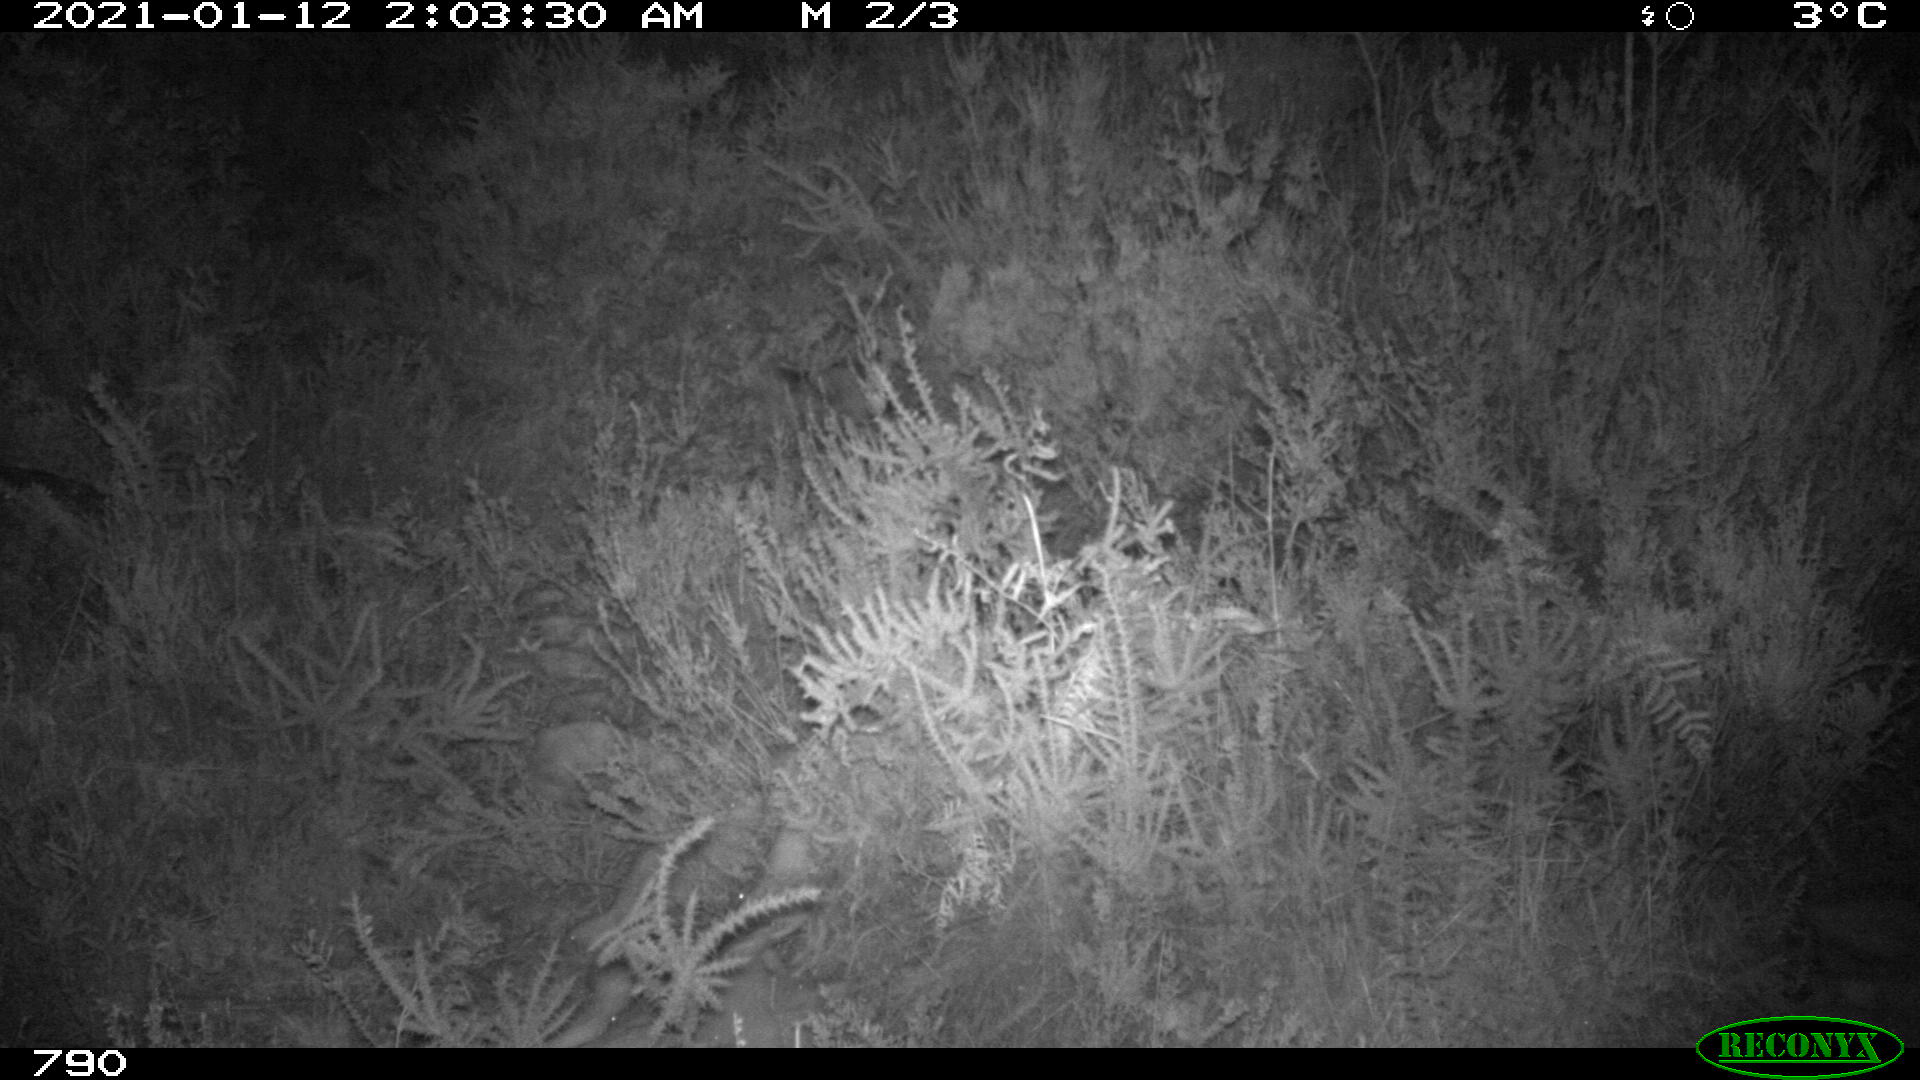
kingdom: Animalia
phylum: Chordata
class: Mammalia
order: Carnivora
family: Canidae
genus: Vulpes
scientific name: Vulpes vulpes
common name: Red fox
